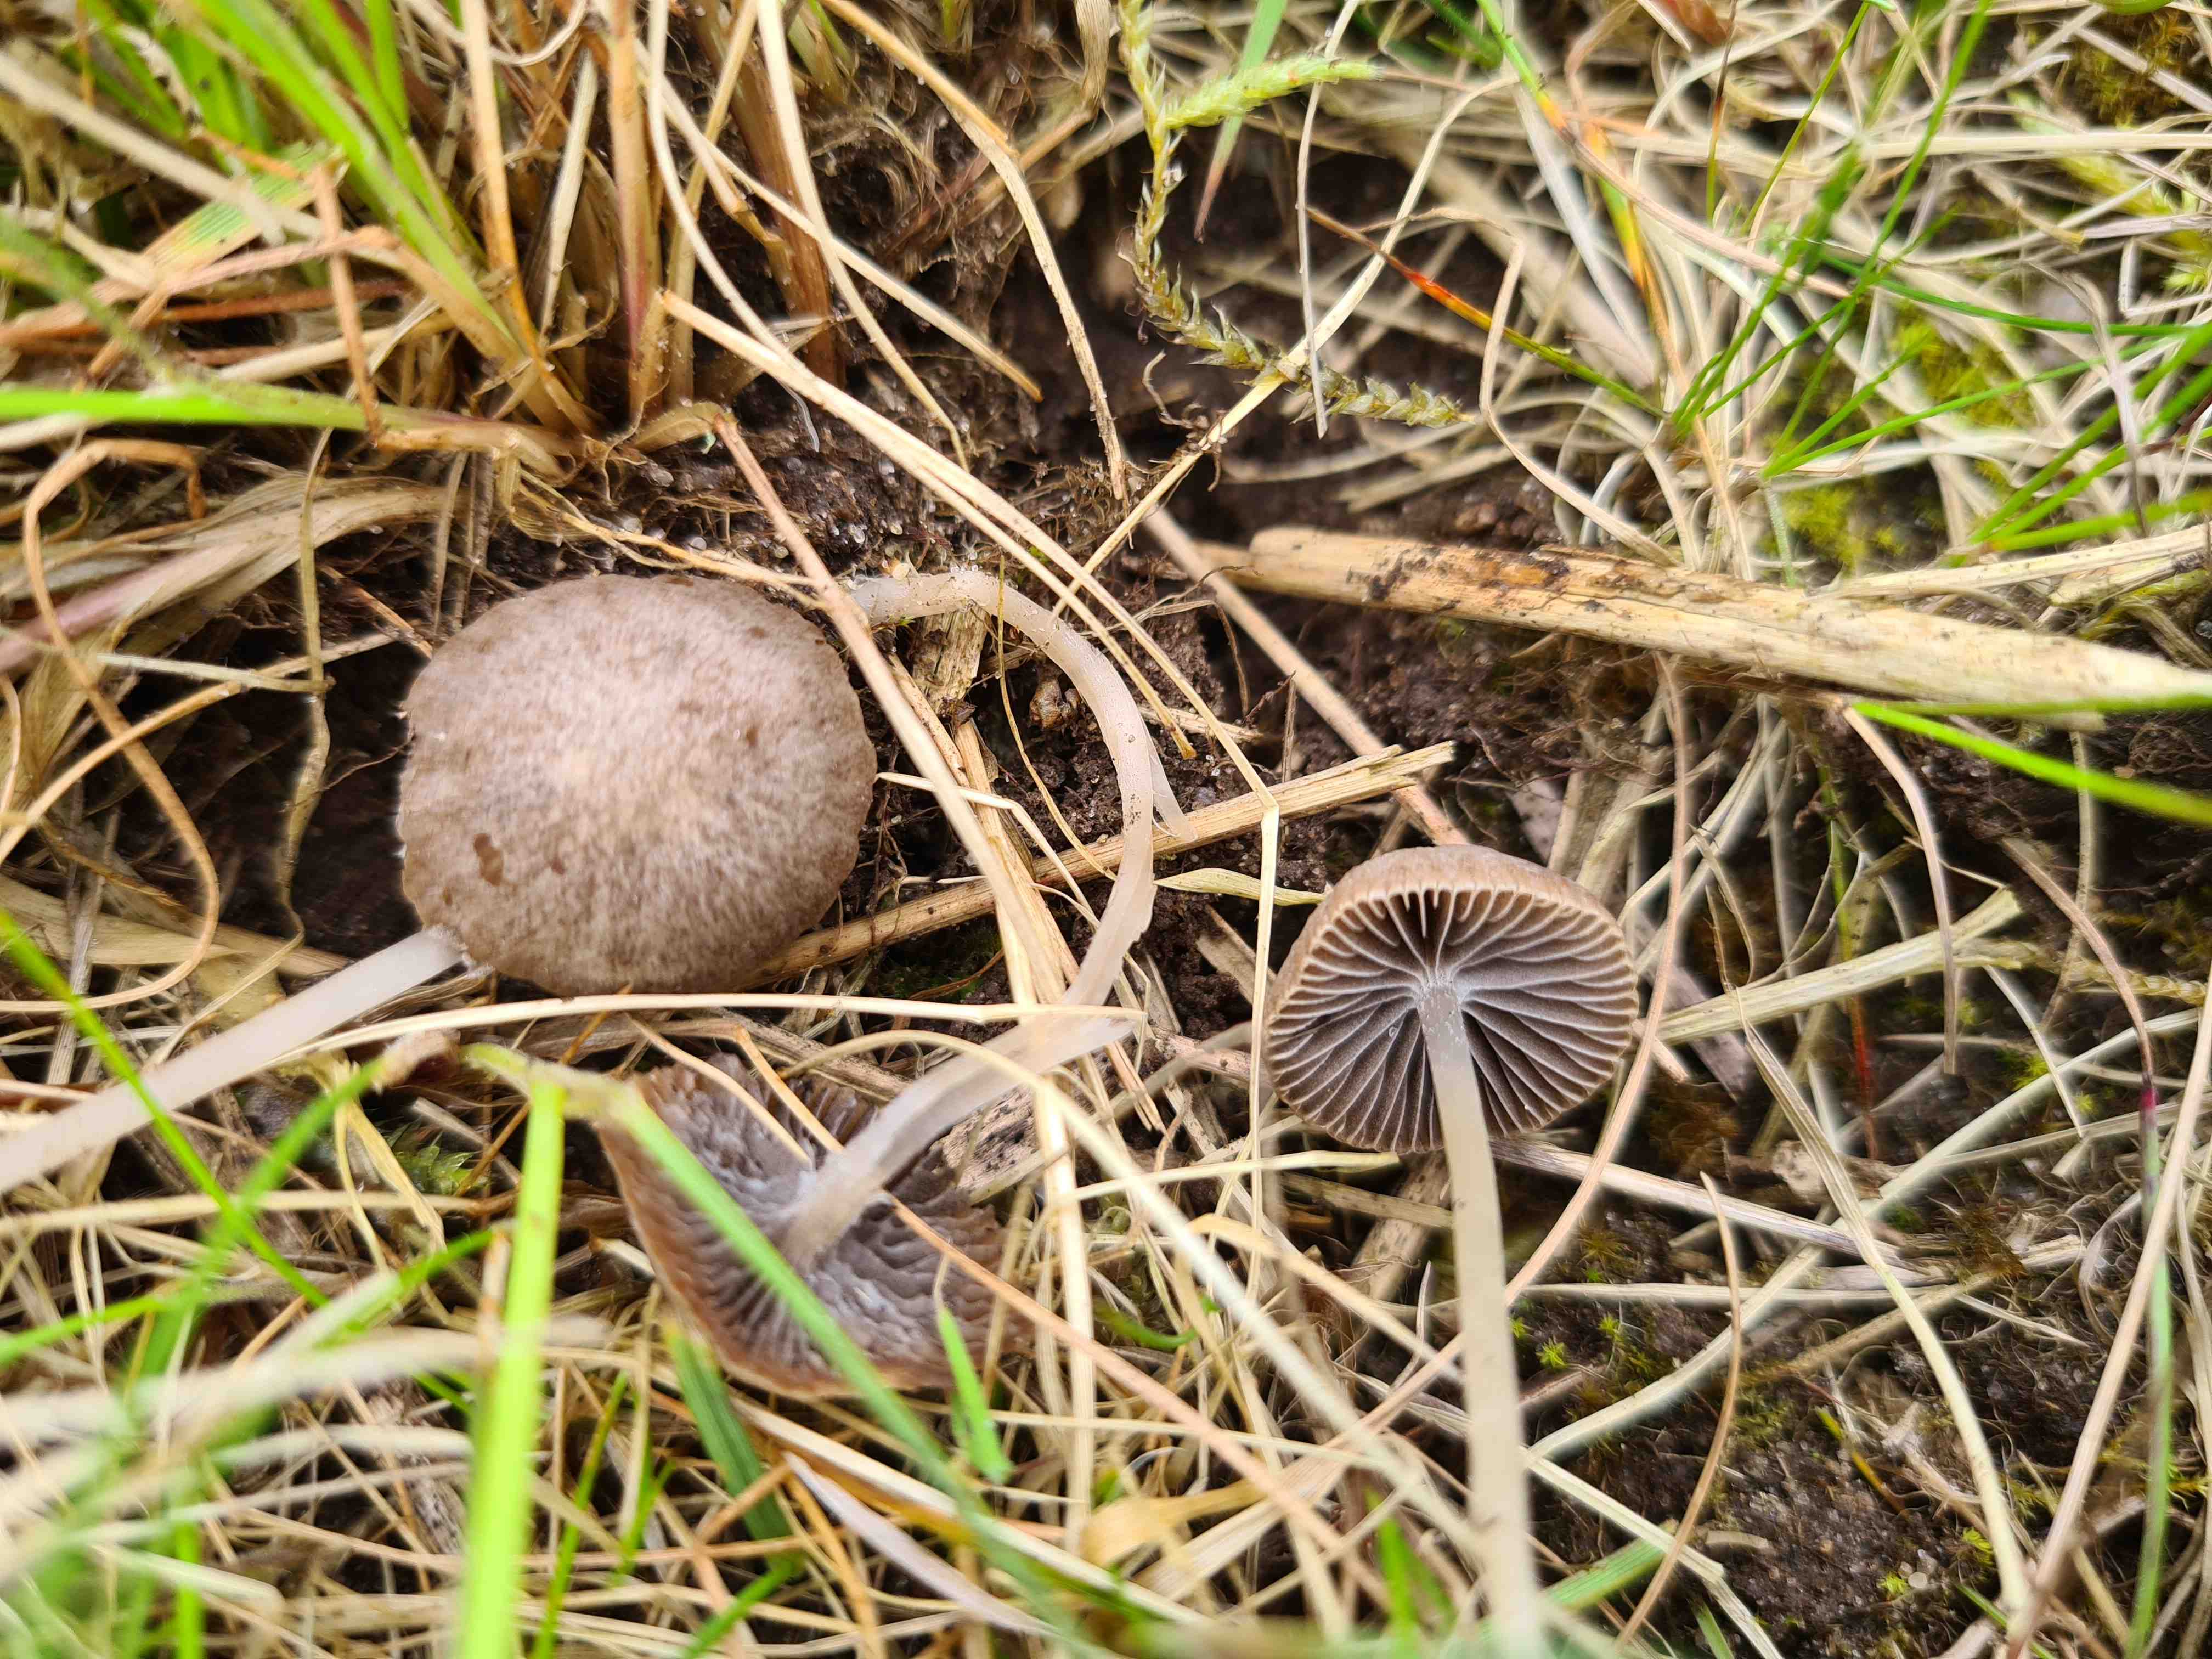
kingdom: Fungi
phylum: Basidiomycota
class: Agaricomycetes
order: Agaricales
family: Psathyrellaceae
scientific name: Psathyrellaceae
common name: mørkhatfamilien
